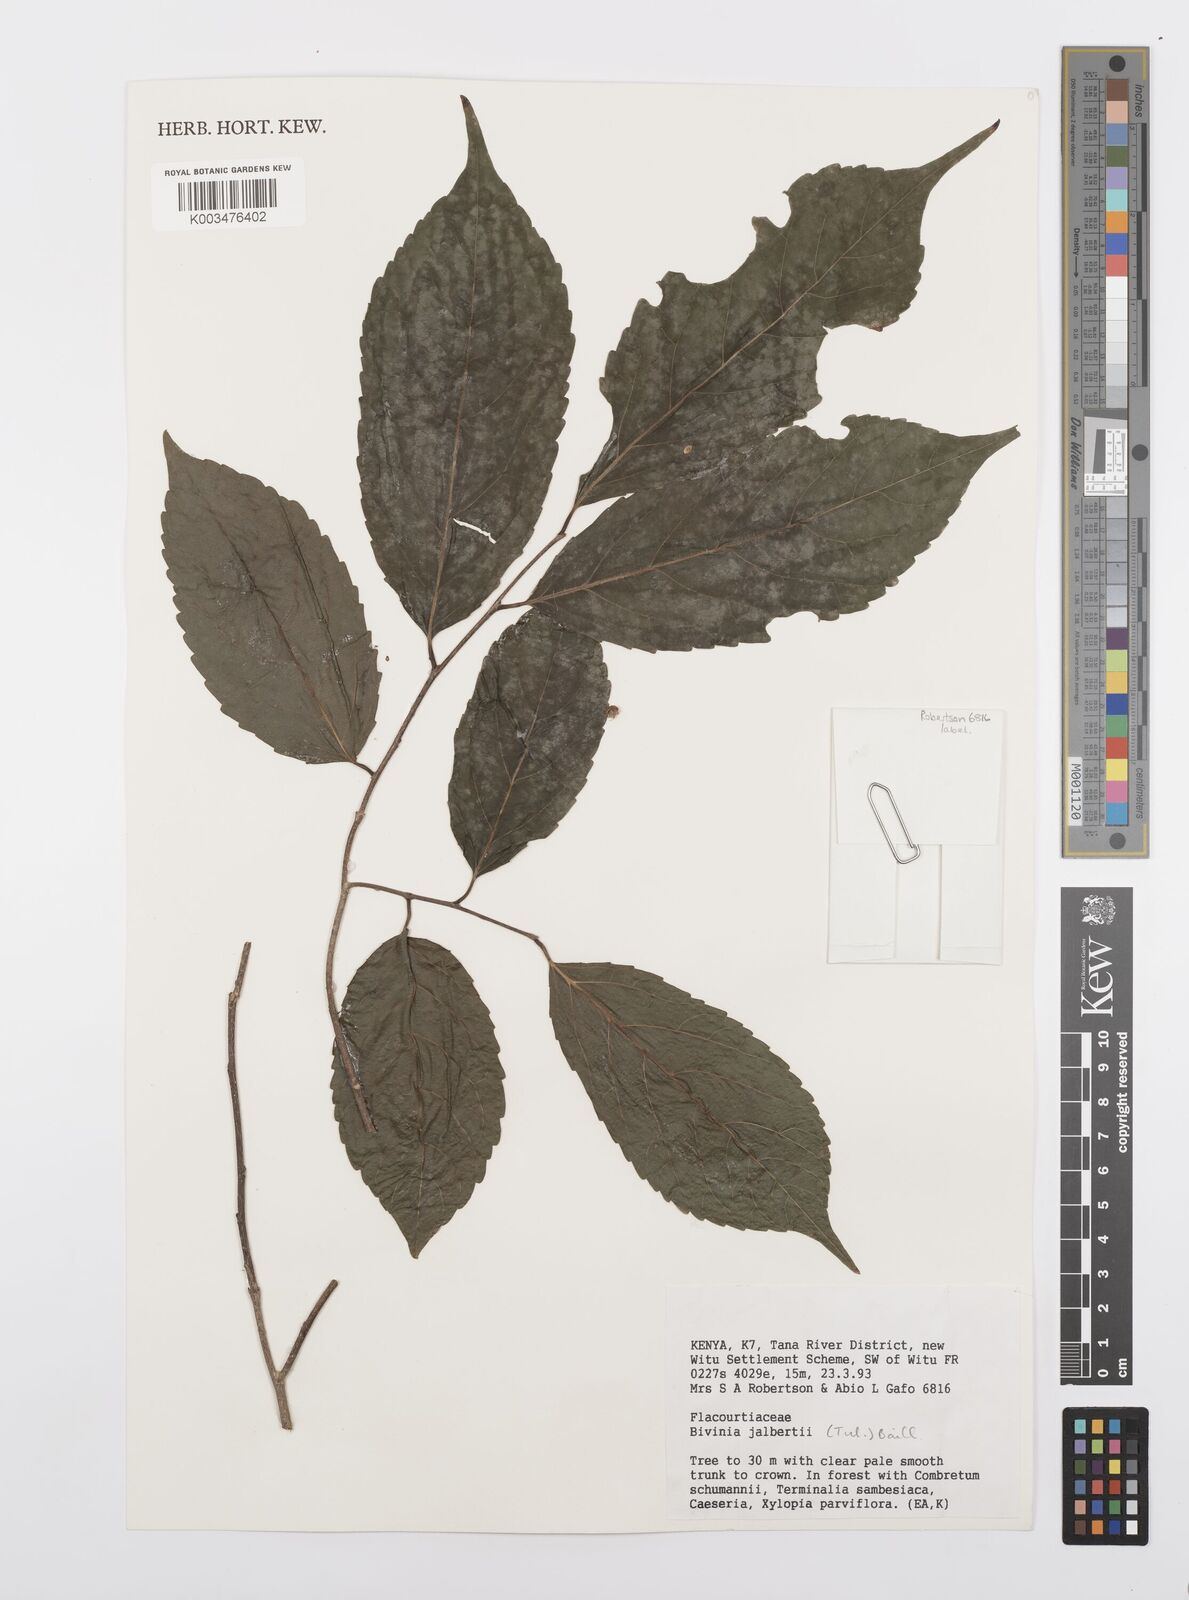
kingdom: Plantae
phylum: Tracheophyta
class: Magnoliopsida
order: Malpighiales
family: Salicaceae
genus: Bivinia
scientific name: Bivinia jalbertii
